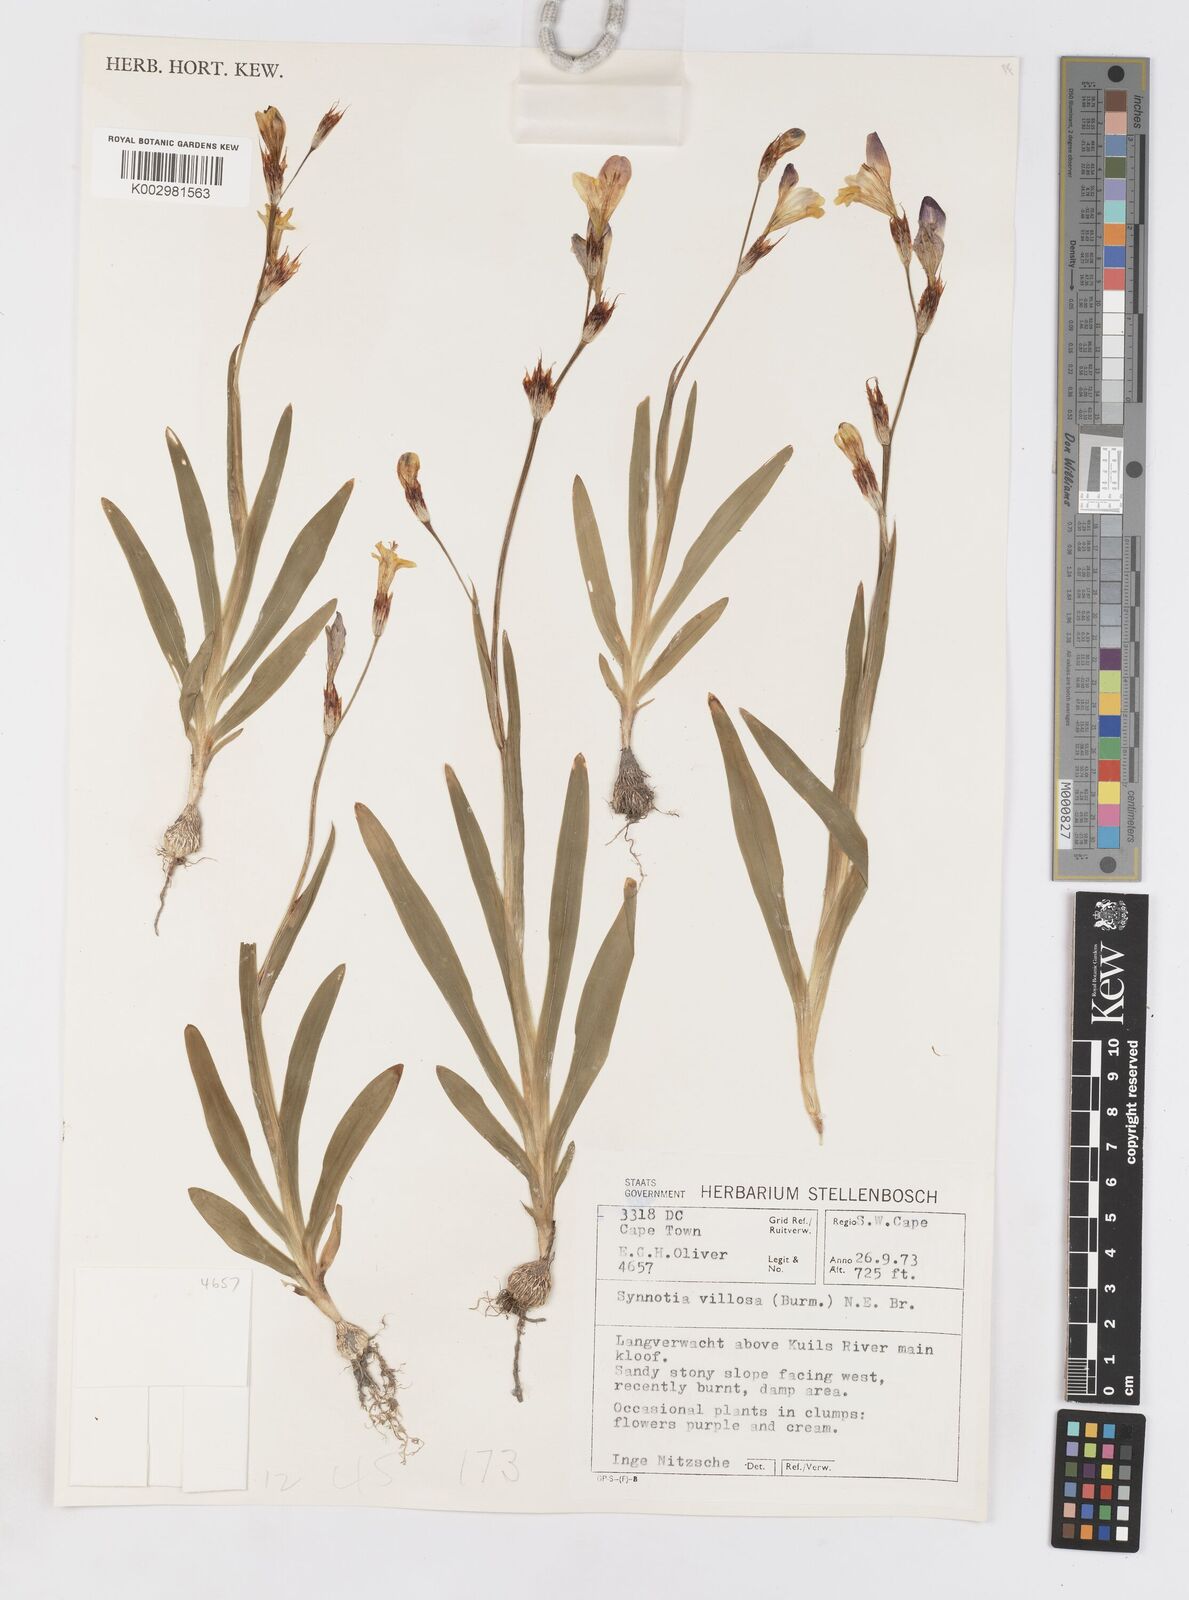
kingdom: Plantae
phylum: Tracheophyta
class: Liliopsida
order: Asparagales
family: Iridaceae
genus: Sparaxis
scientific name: Sparaxis villosa
